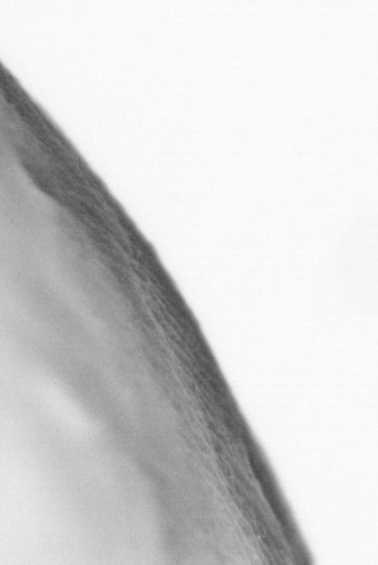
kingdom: Animalia
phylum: Chordata
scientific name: Chordata
